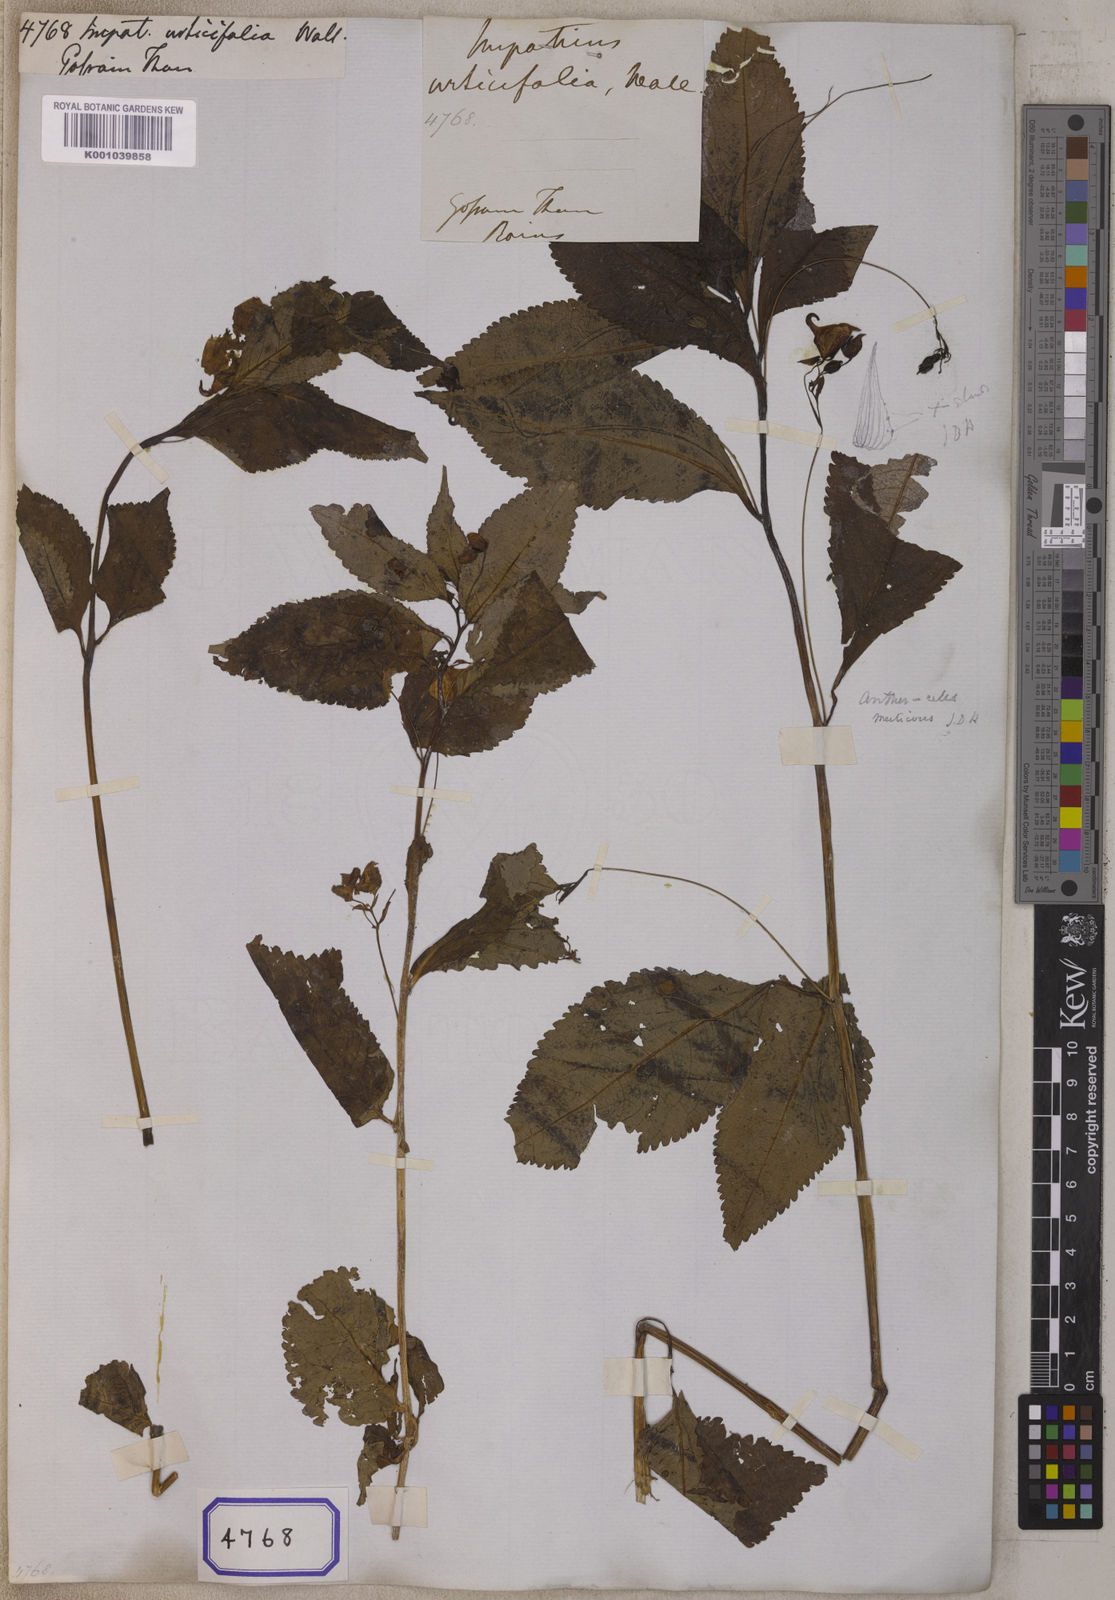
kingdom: Plantae
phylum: Tracheophyta
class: Magnoliopsida
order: Ericales
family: Balsaminaceae
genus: Impatiens
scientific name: Impatiens urticifolia
